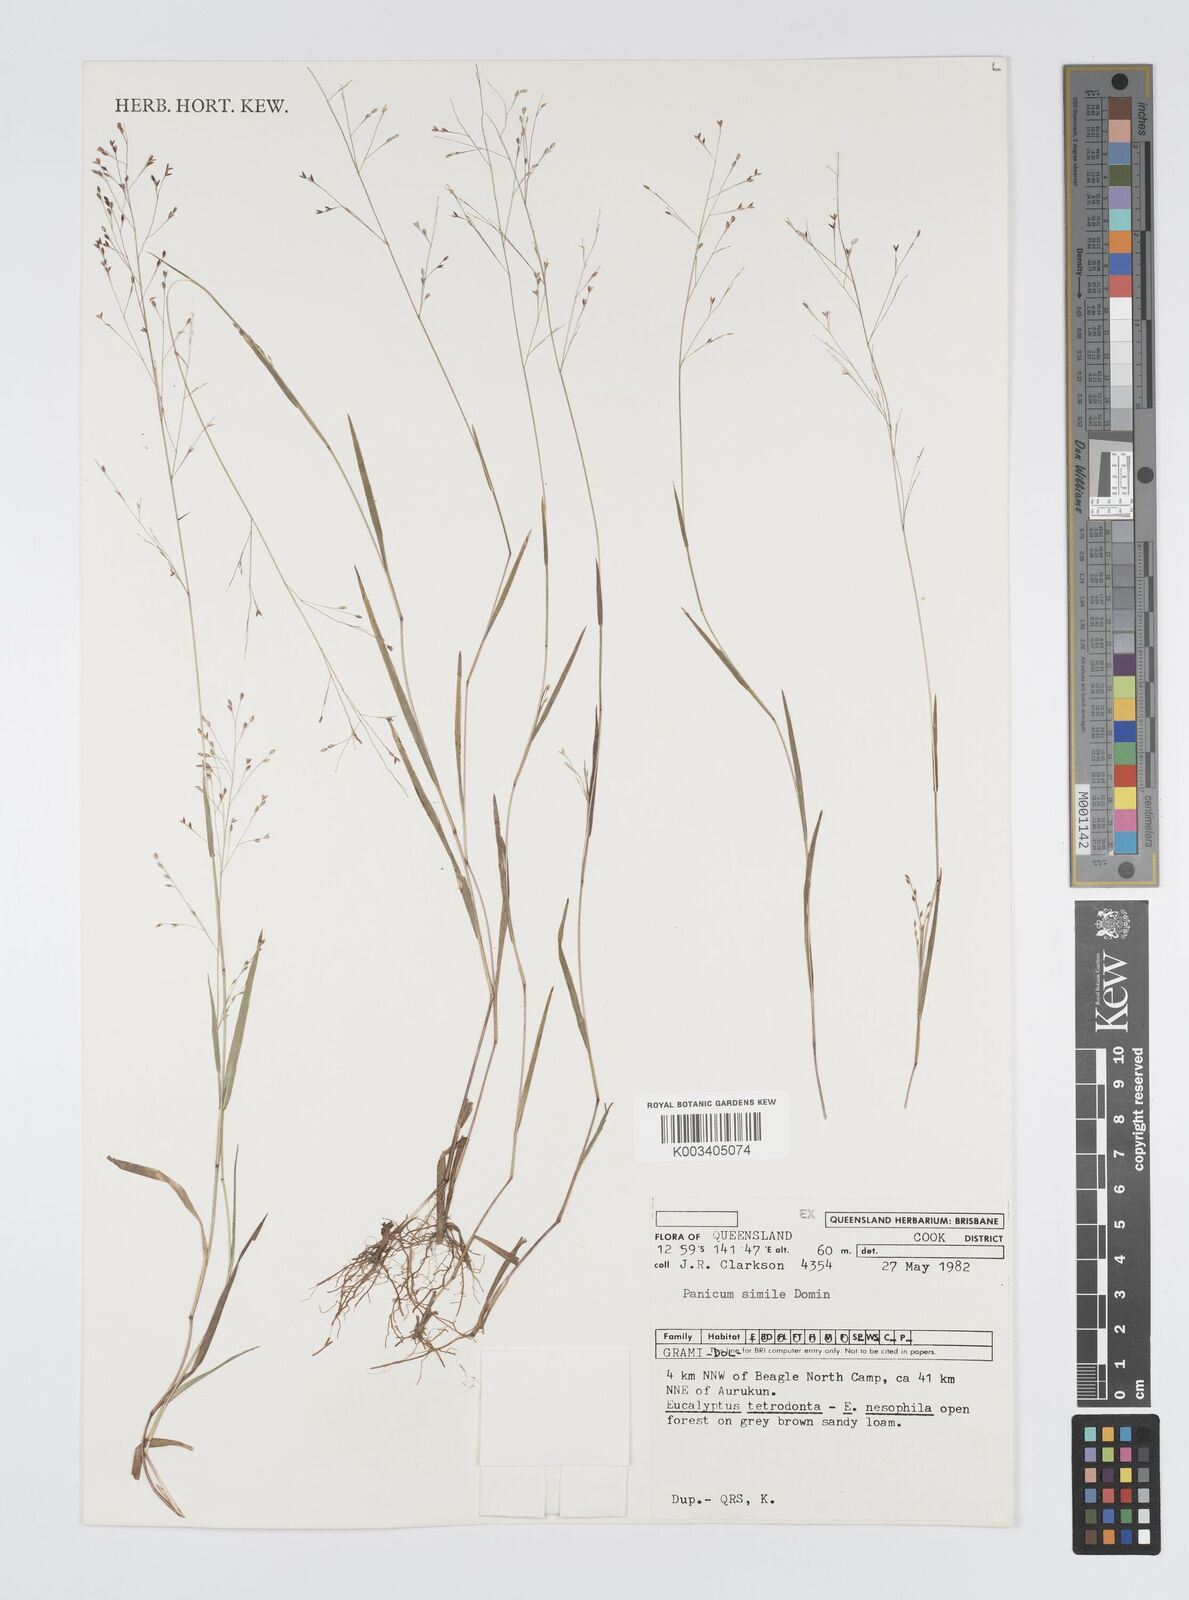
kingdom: Plantae
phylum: Tracheophyta
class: Liliopsida
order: Poales
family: Poaceae
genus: Panicum
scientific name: Panicum simile
